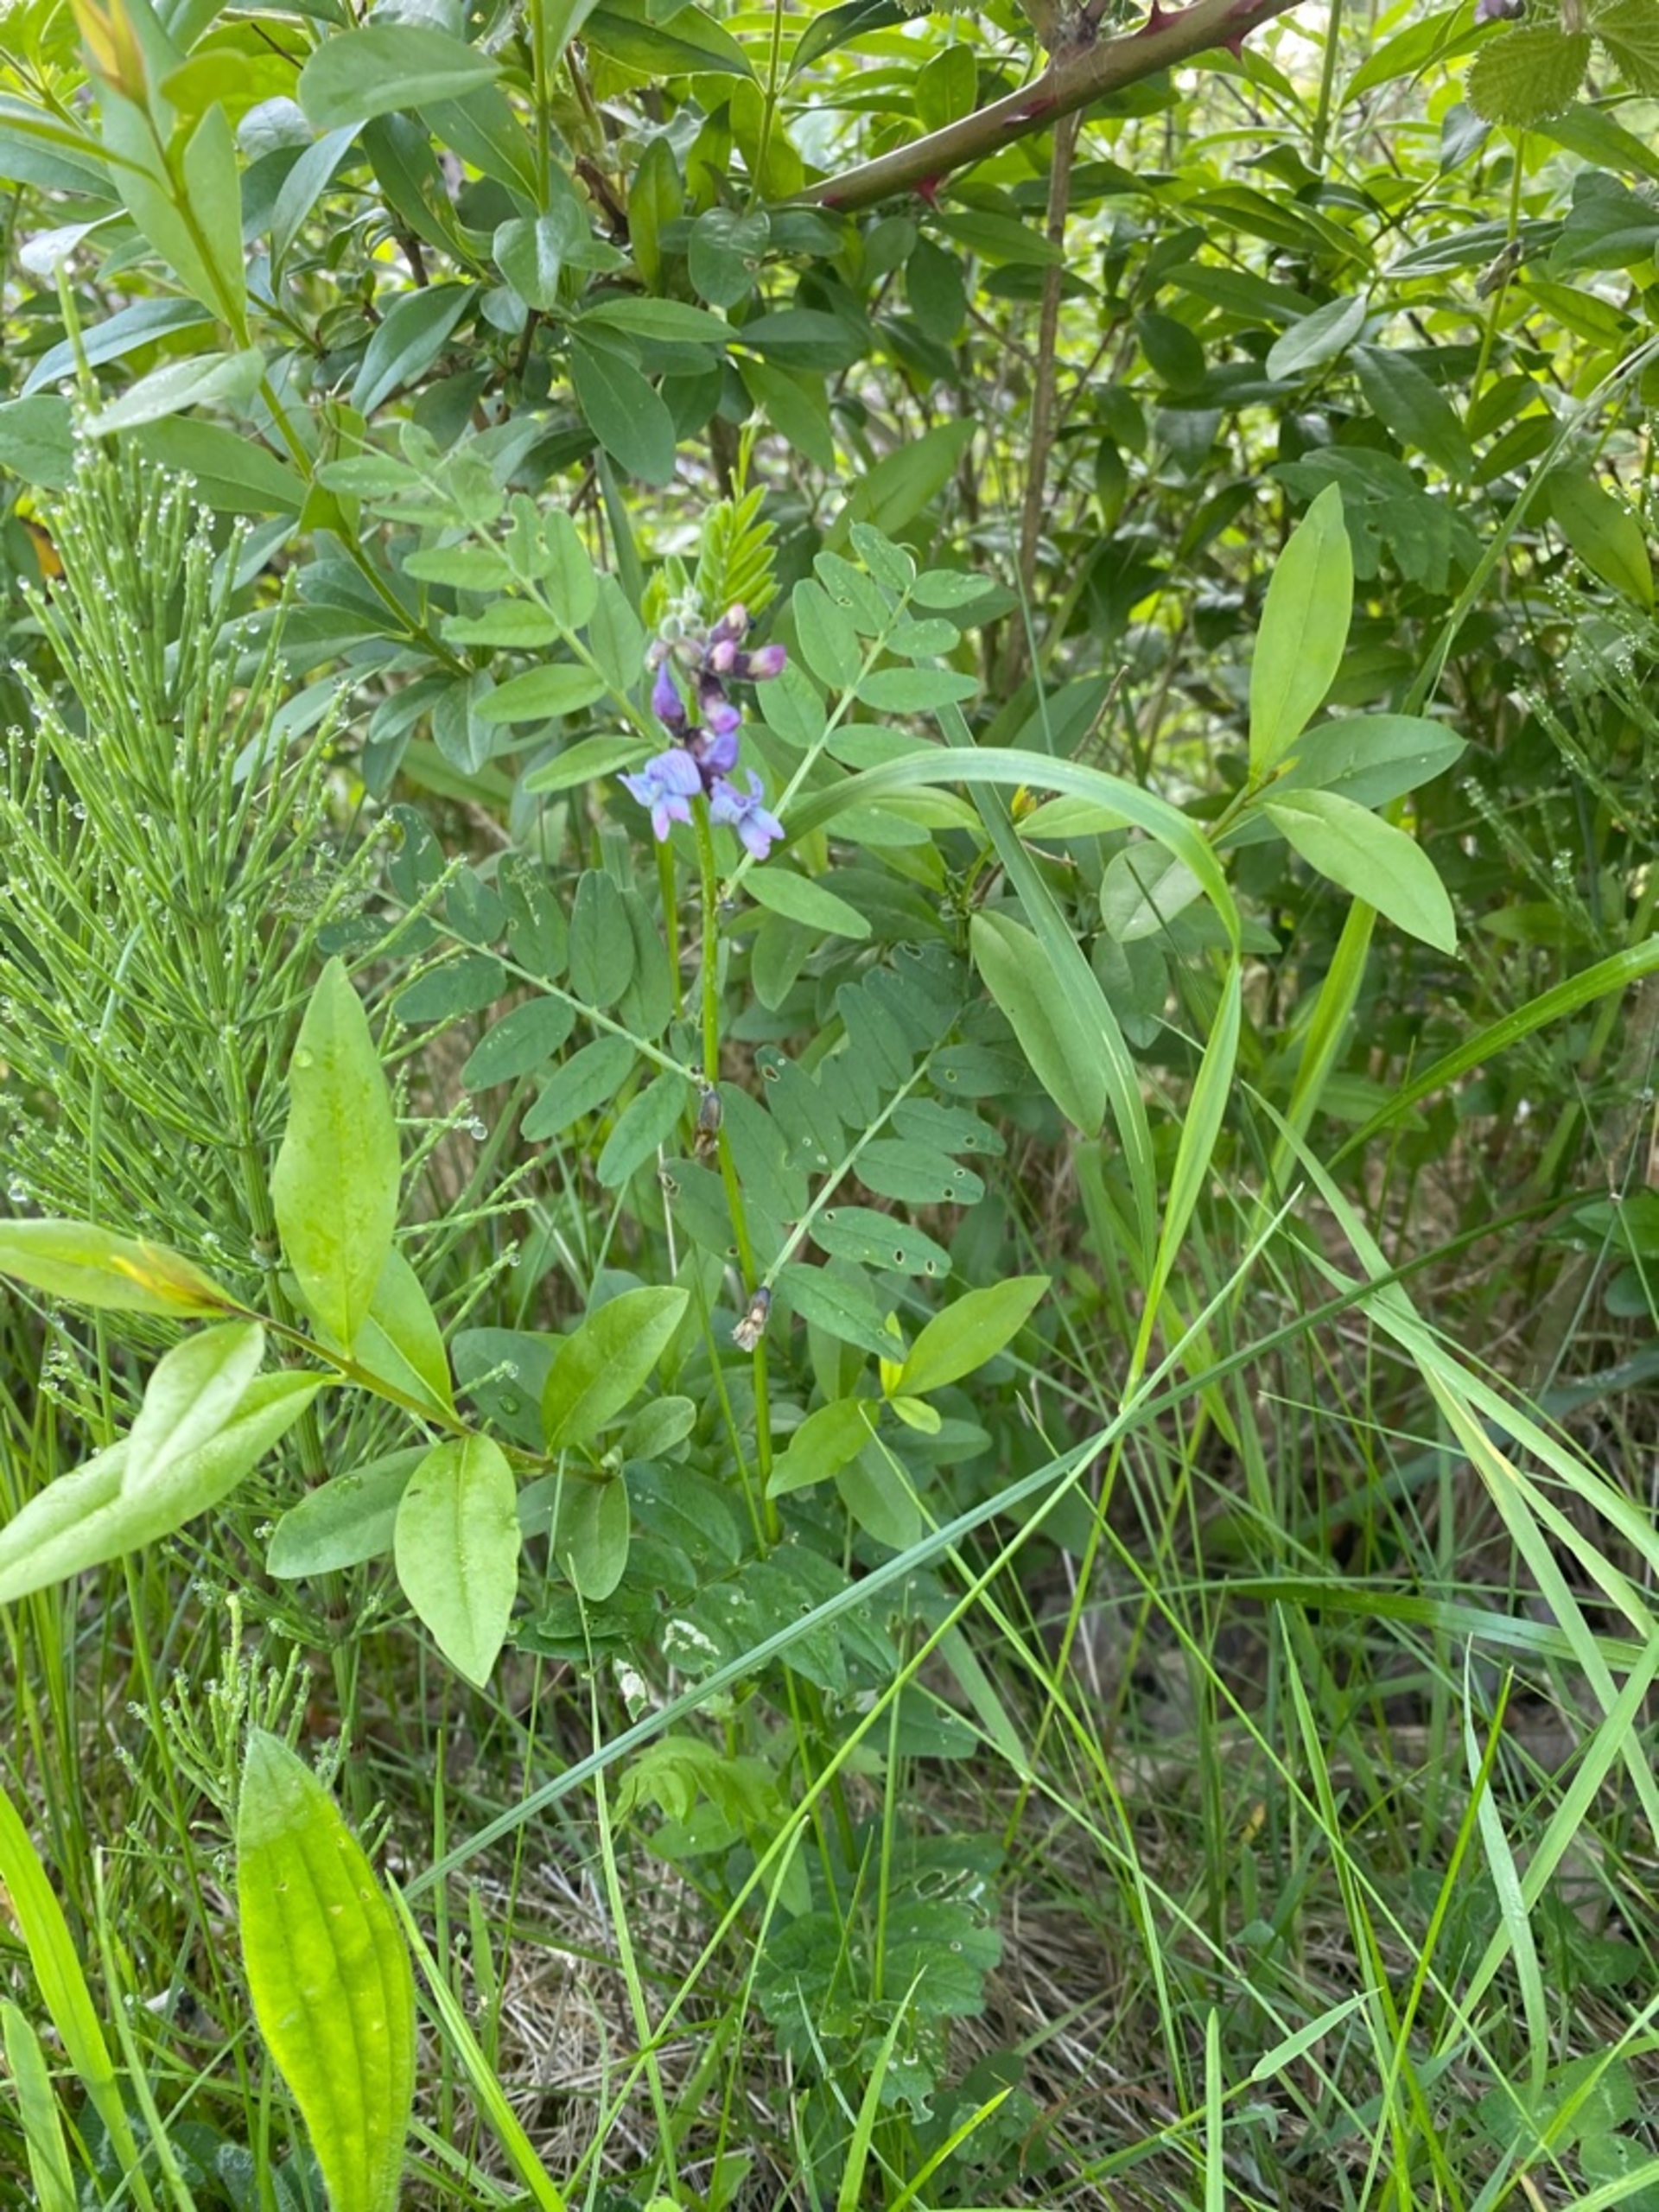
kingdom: Plantae
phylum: Tracheophyta
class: Magnoliopsida
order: Fabales
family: Fabaceae
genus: Vicia
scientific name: Vicia sepium
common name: Gærde-vikke
